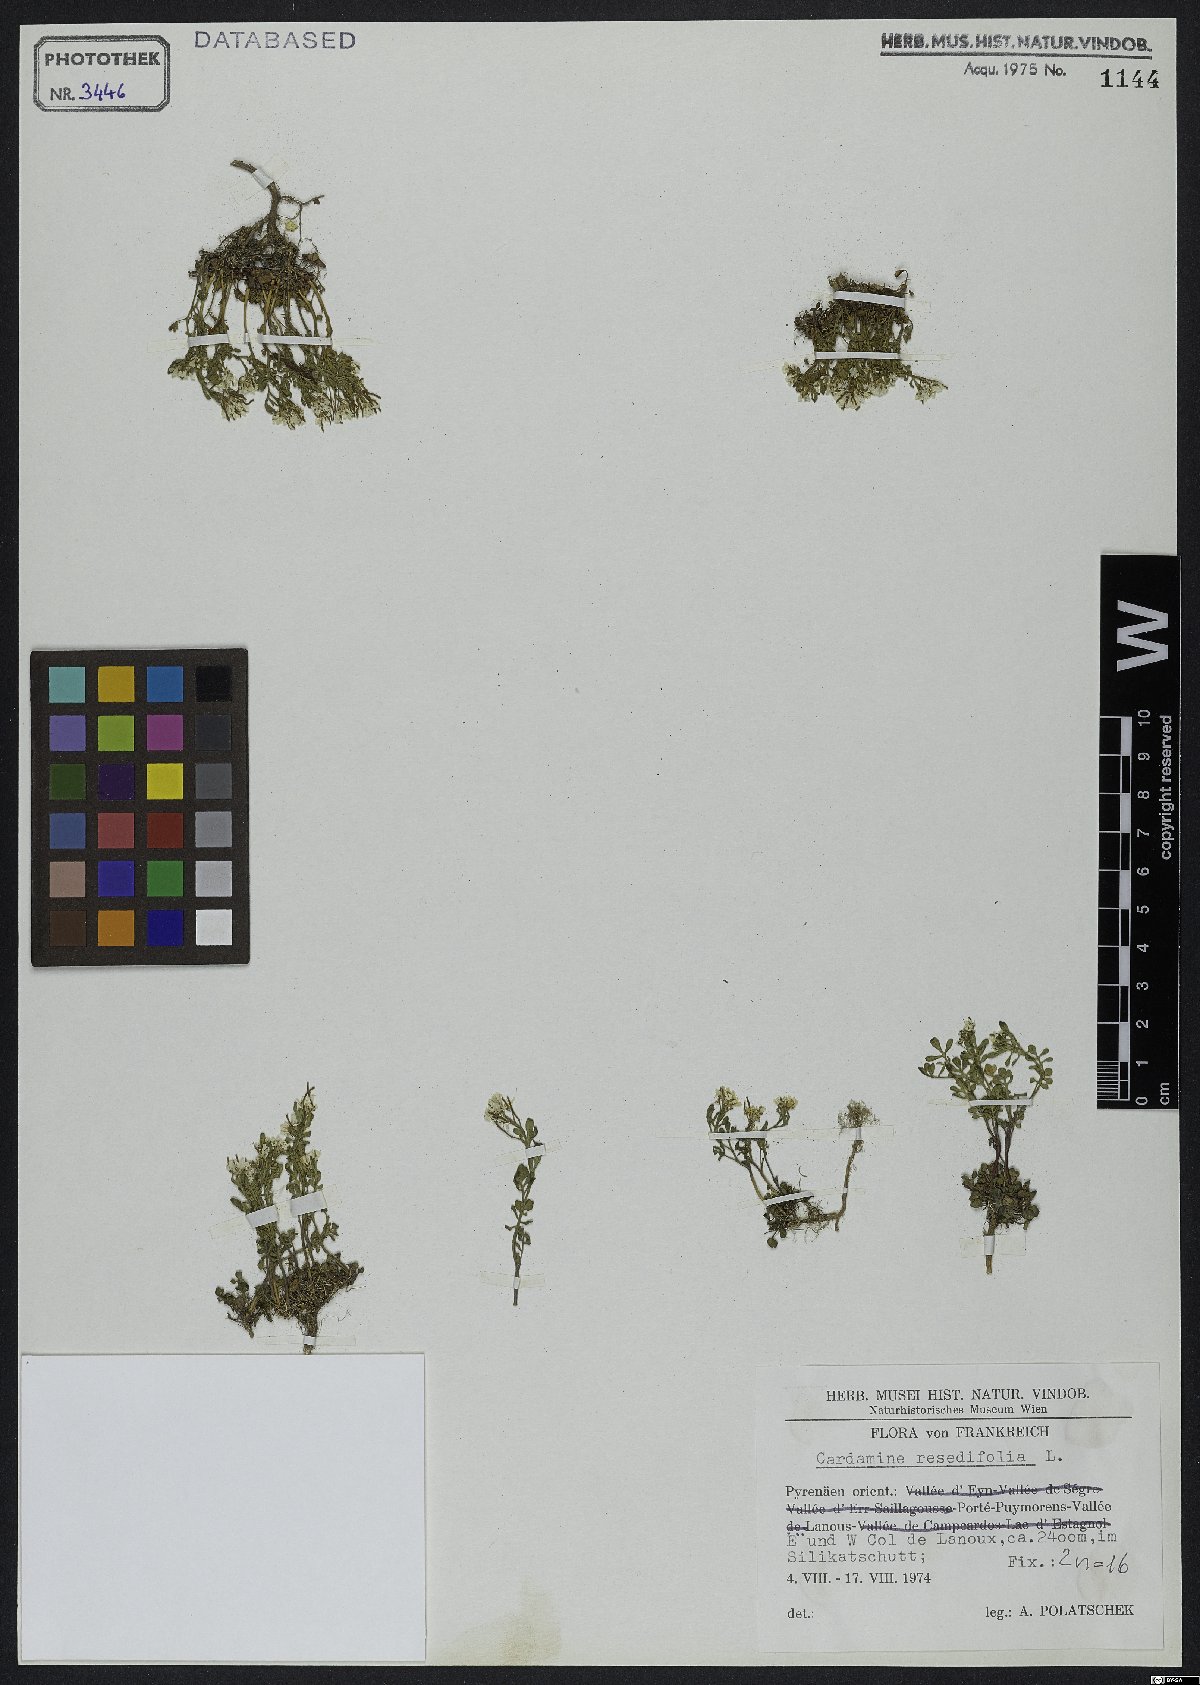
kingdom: Plantae
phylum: Tracheophyta
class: Magnoliopsida
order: Brassicales
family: Brassicaceae
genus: Cardamine
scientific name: Cardamine resedifolia
